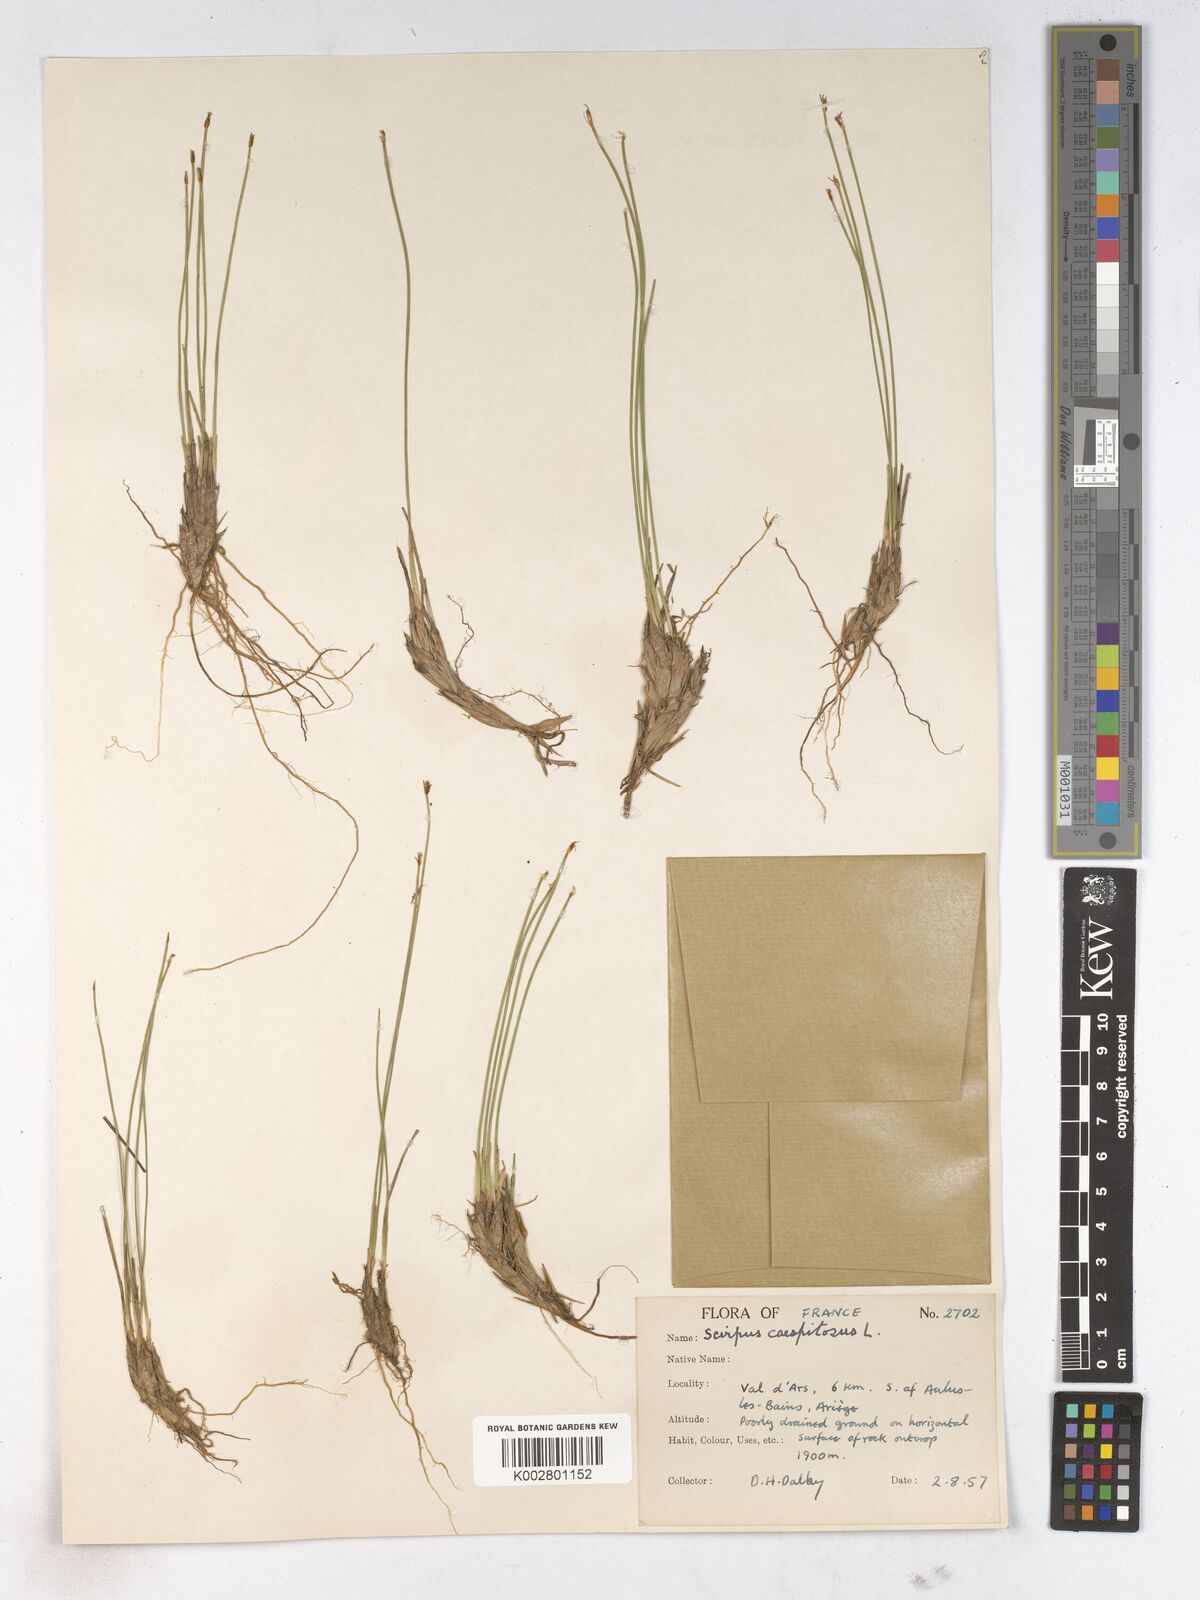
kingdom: Plantae
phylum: Tracheophyta
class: Liliopsida
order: Poales
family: Cyperaceae
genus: Trichophorum
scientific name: Trichophorum cespitosum
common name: Cespitose bulrush
